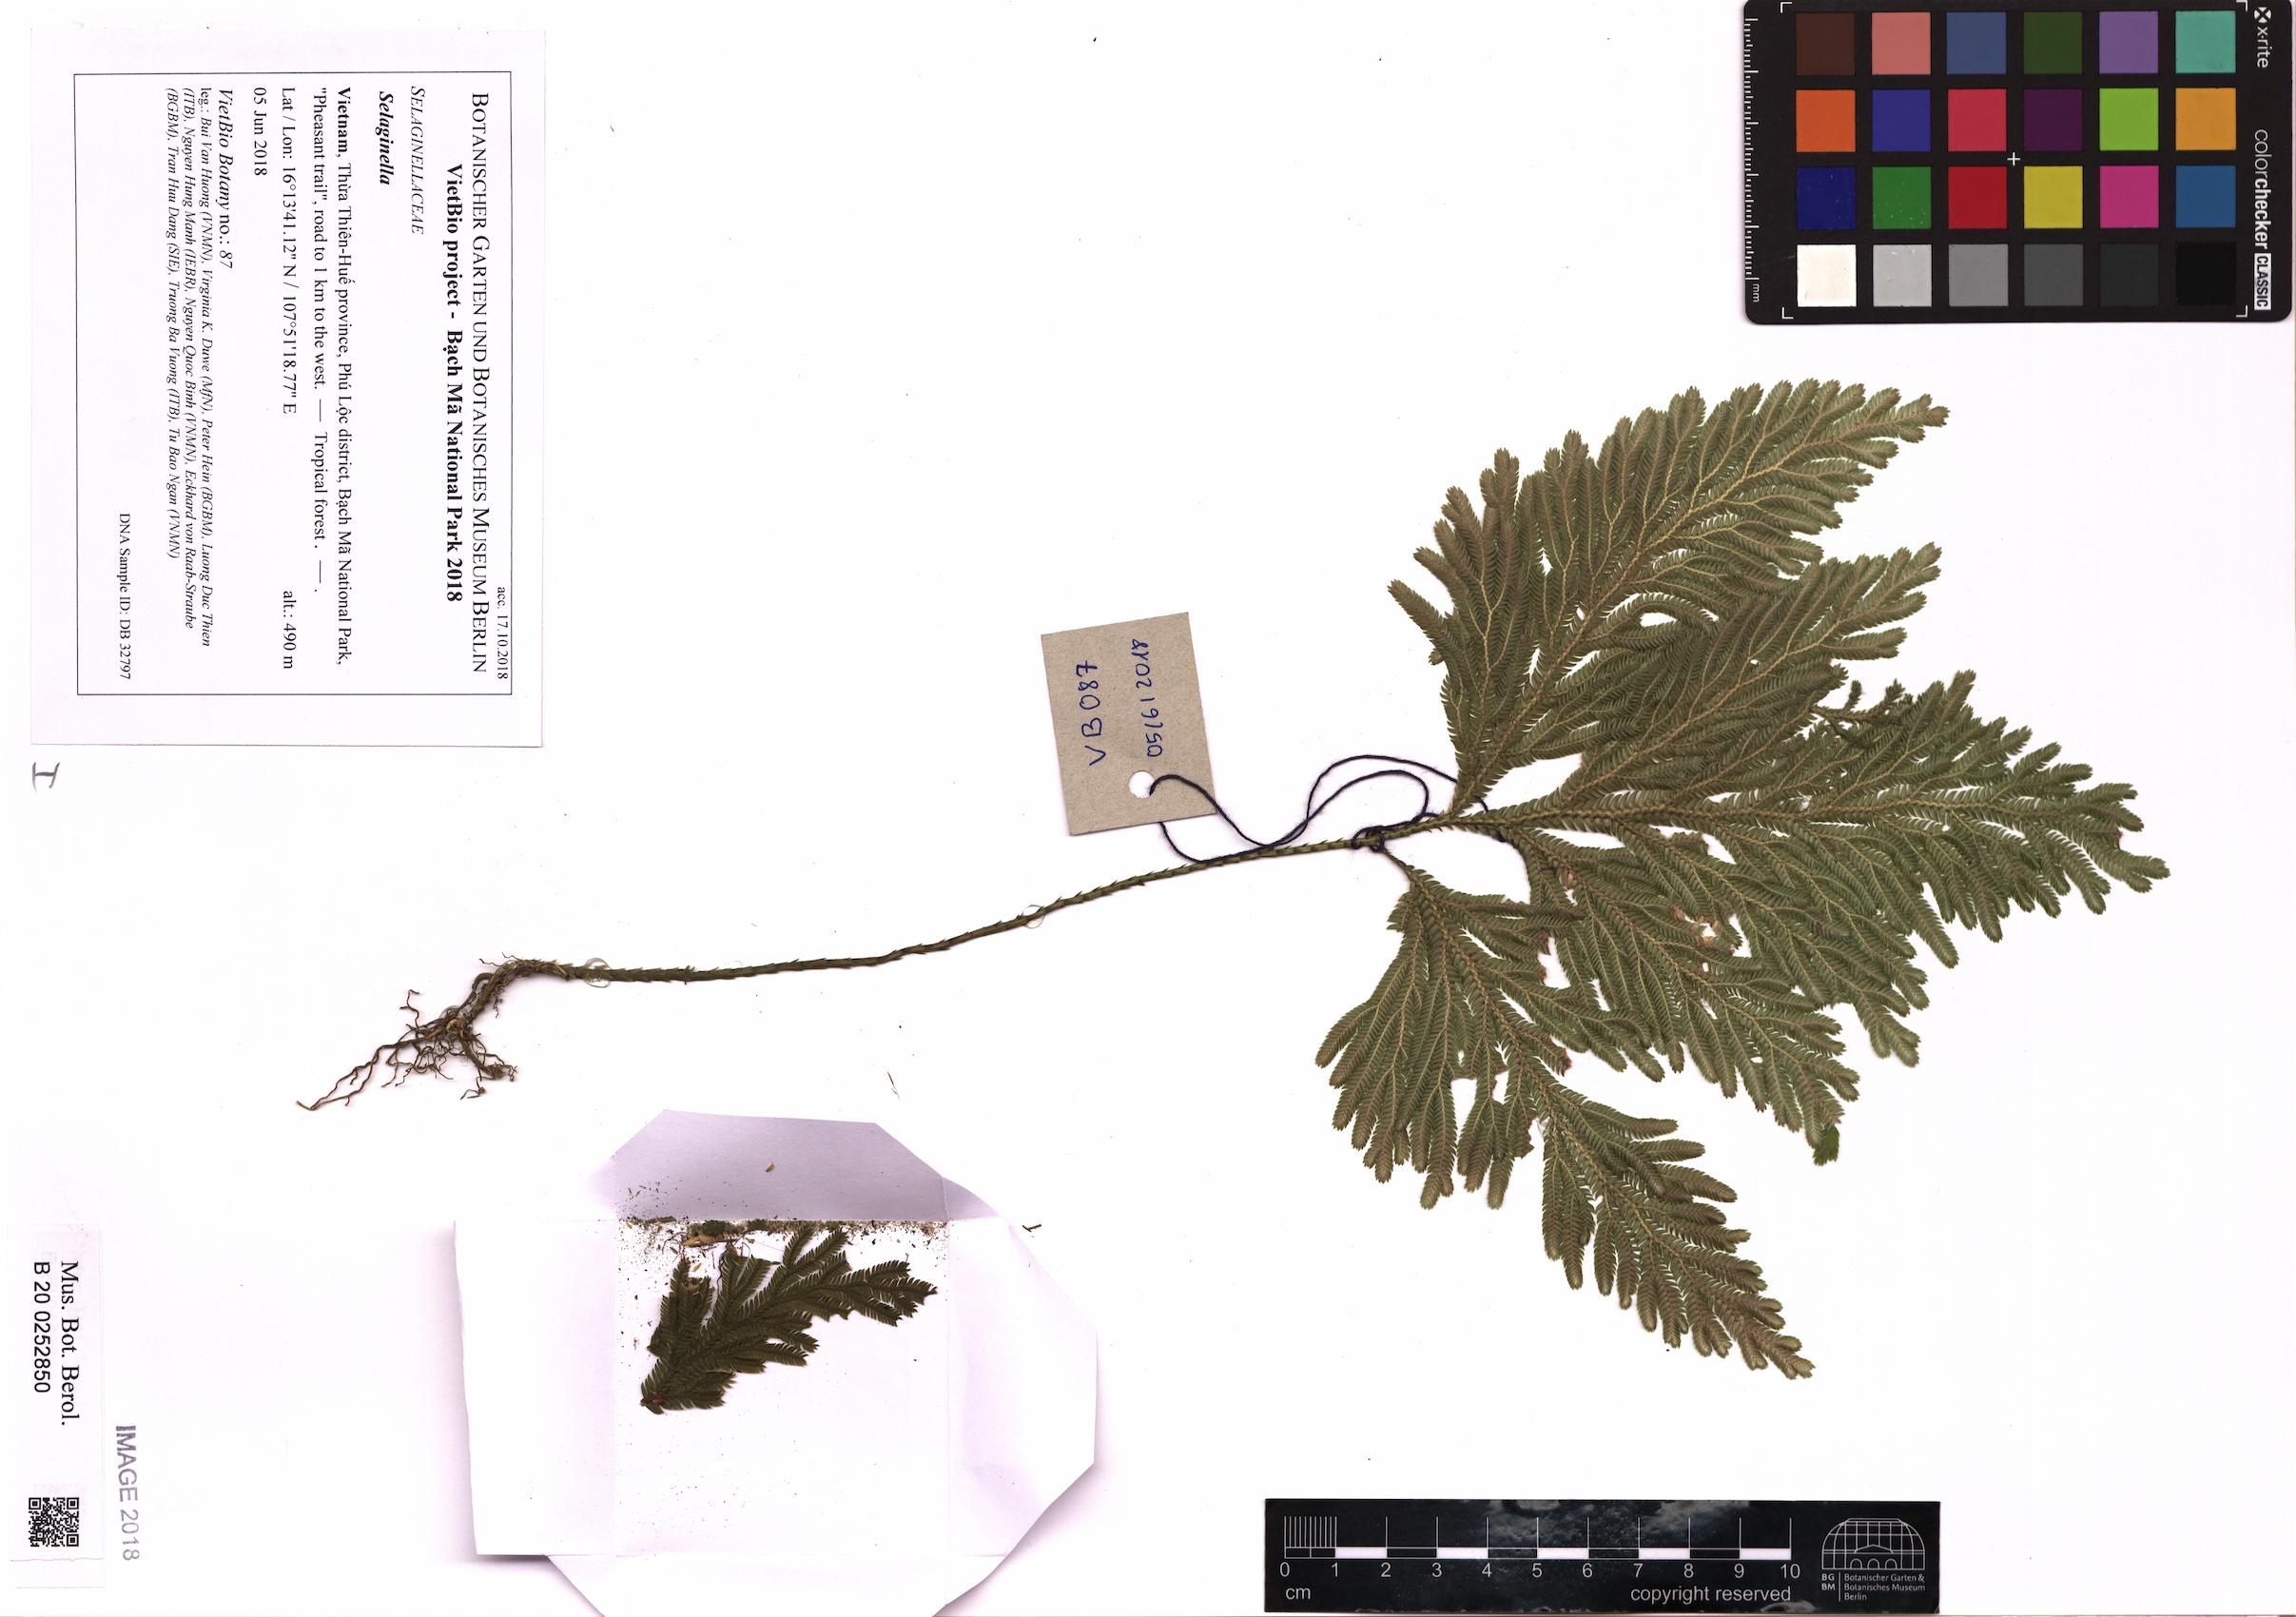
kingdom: Plantae
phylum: Tracheophyta
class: Lycopodiopsida
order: Selaginellales
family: Selaginellaceae
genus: Selaginella
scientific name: Selaginella
